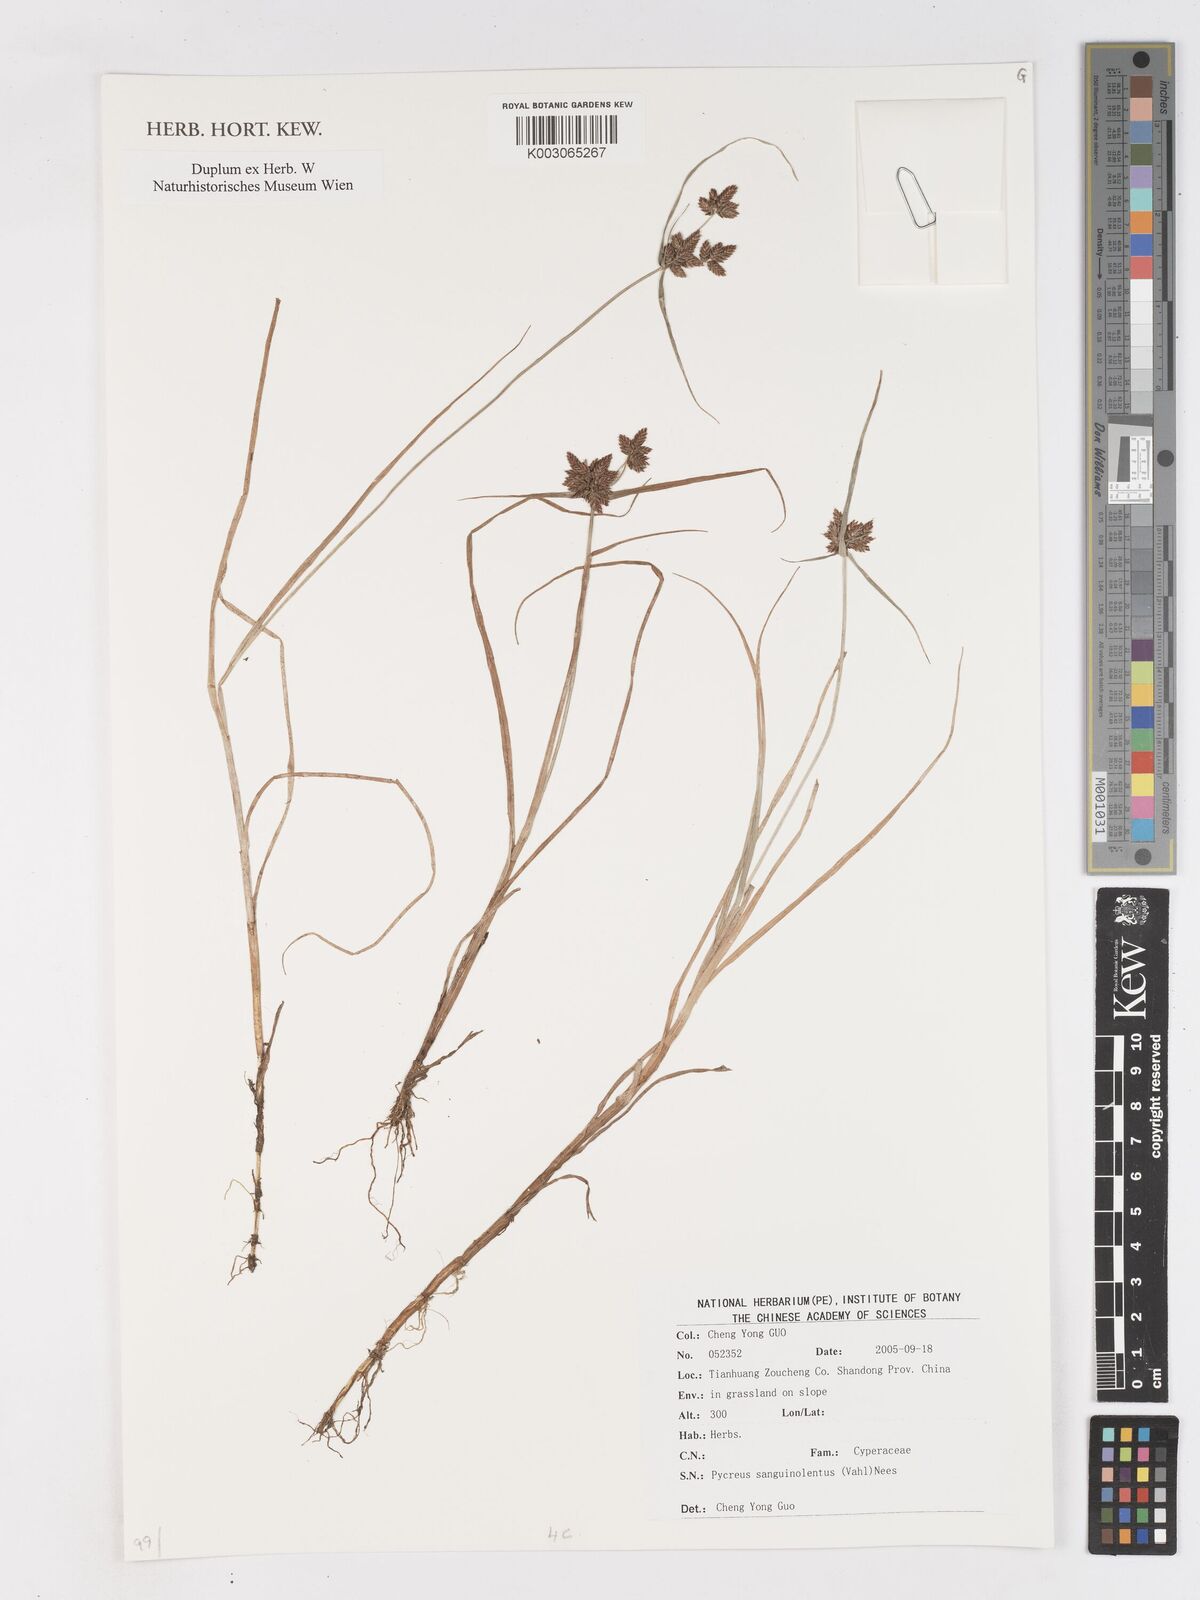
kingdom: Plantae
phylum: Tracheophyta
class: Liliopsida
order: Poales
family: Cyperaceae
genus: Cyperus
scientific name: Cyperus sanguinolentus
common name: Purpleglume flatsedge
